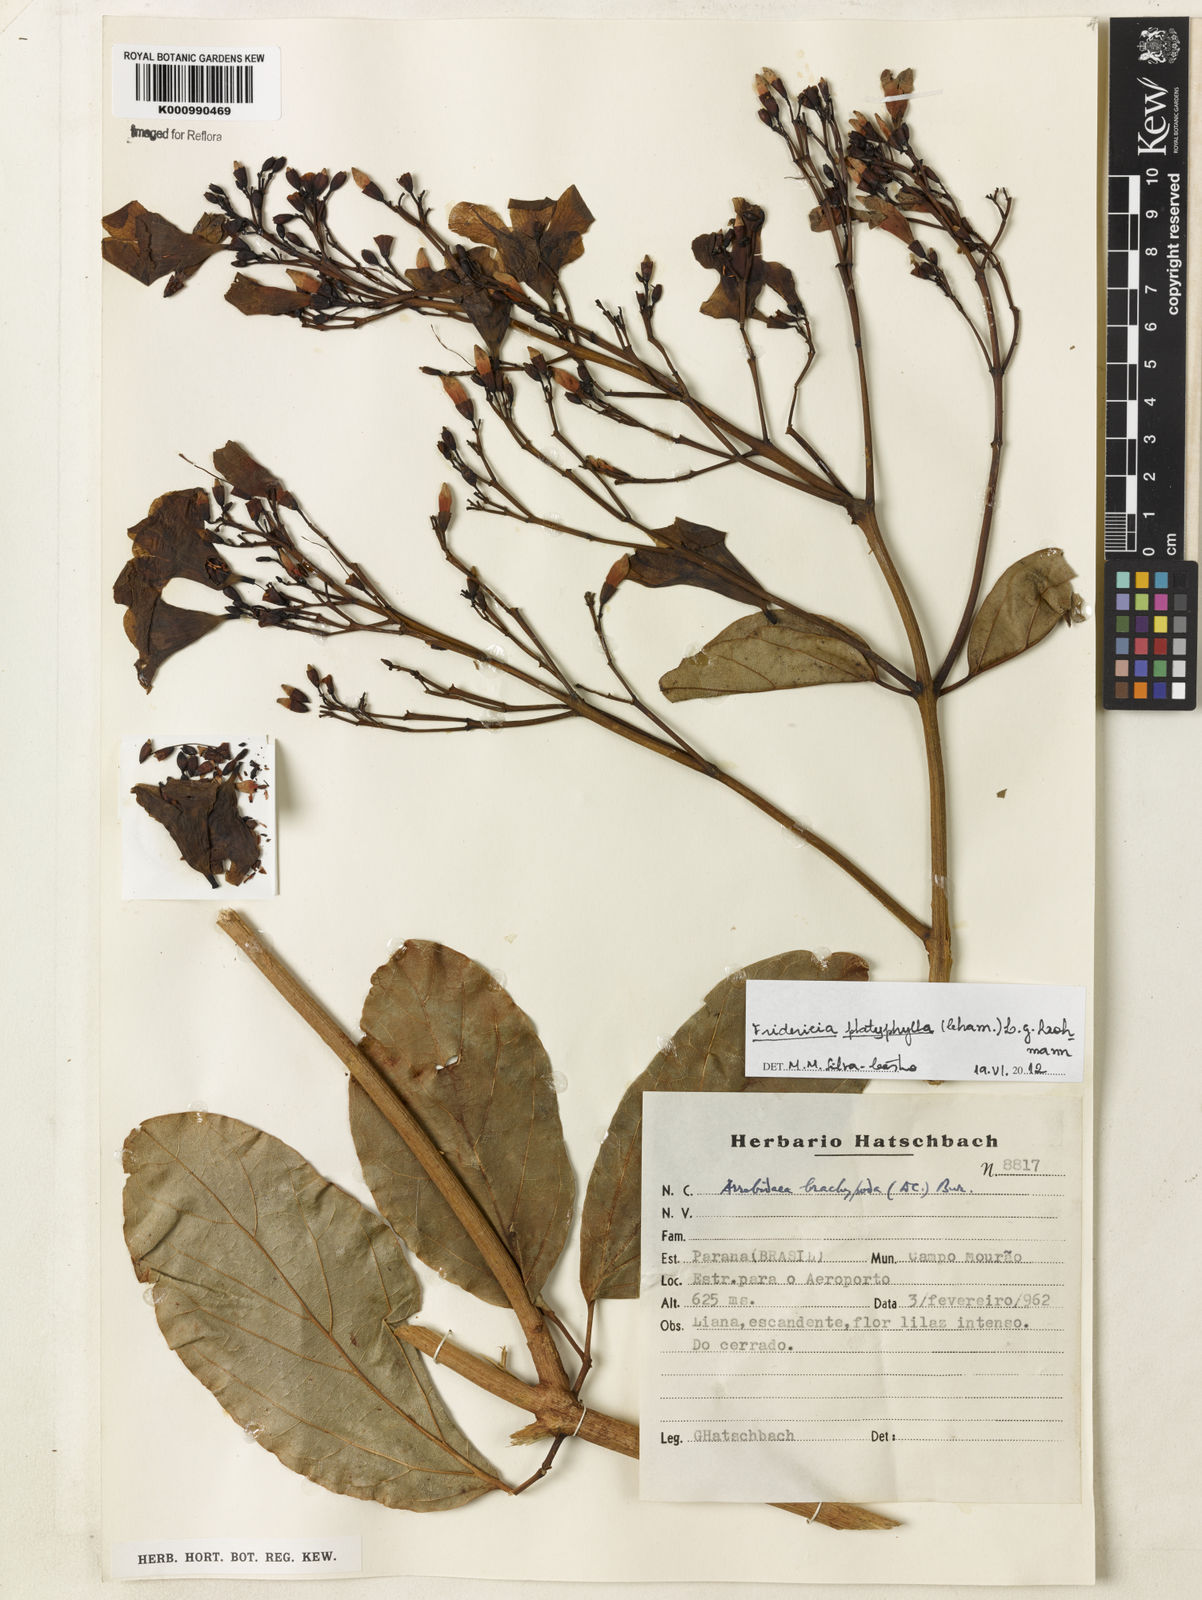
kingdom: Plantae
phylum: Tracheophyta
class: Magnoliopsida
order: Lamiales
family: Bignoniaceae
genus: Fridericia
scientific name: Fridericia platyphylla
